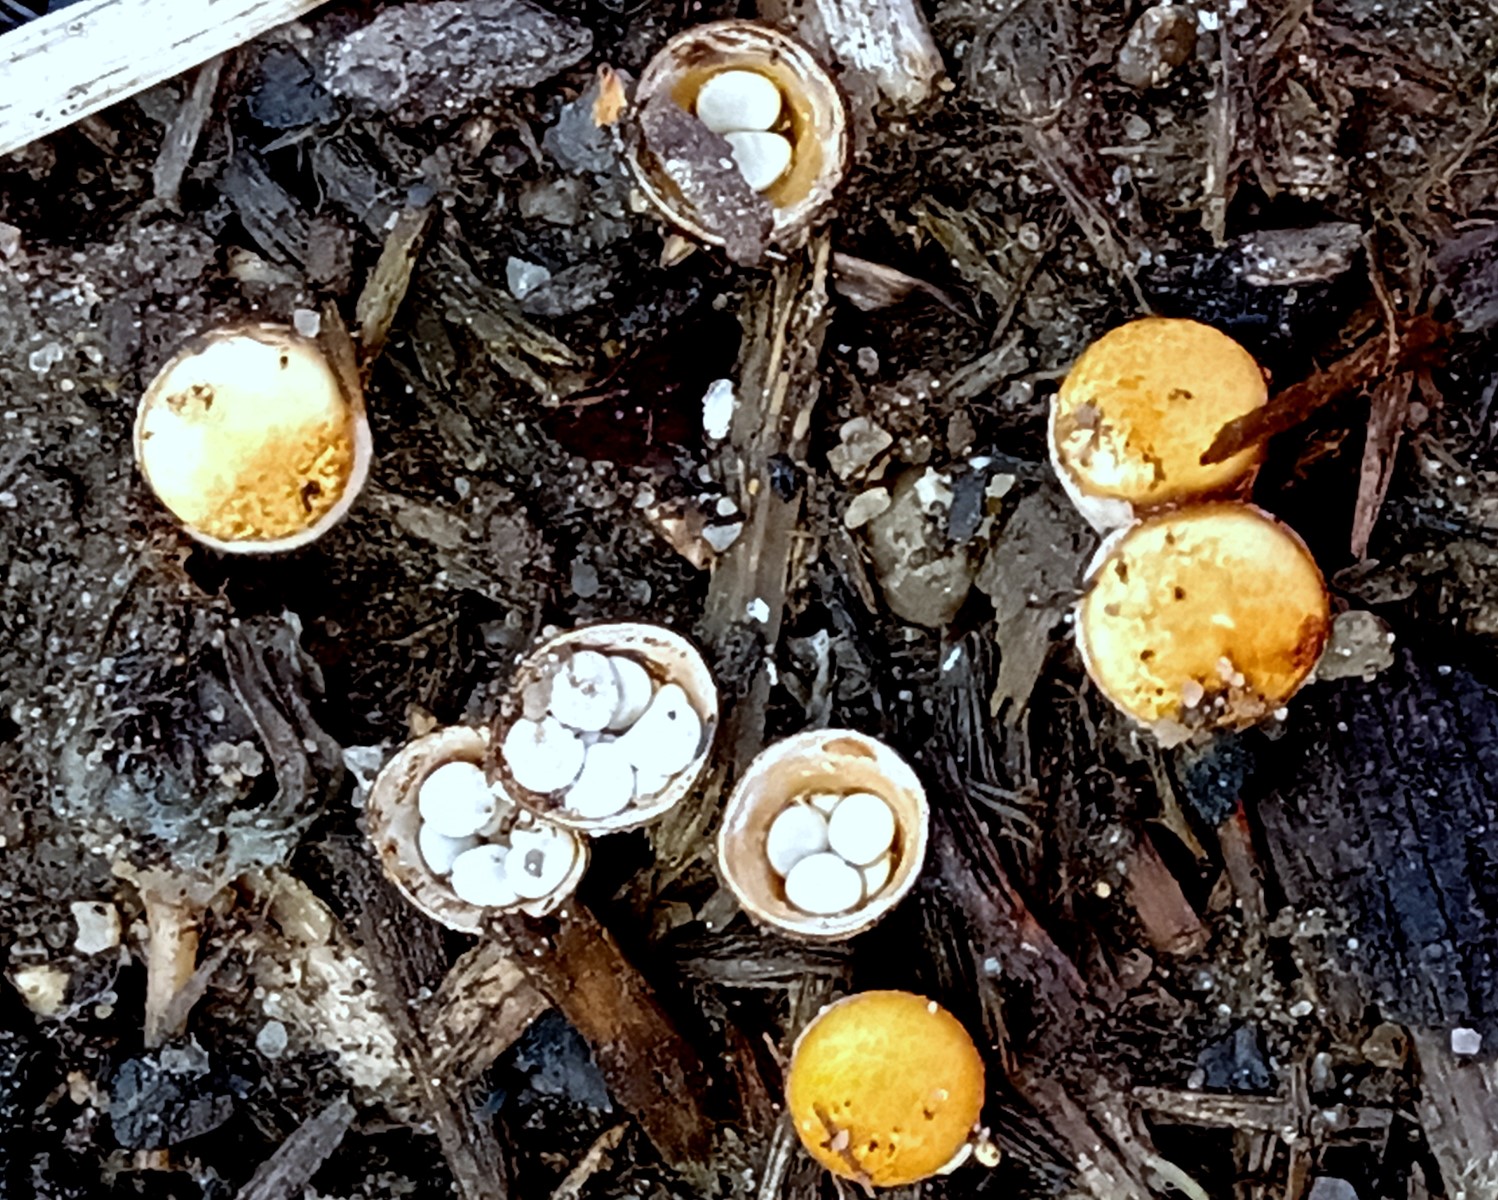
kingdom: Fungi
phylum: Basidiomycota
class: Agaricomycetes
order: Agaricales
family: Nidulariaceae
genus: Crucibulum
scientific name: Crucibulum crucibuliforme
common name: krukkesvamp
